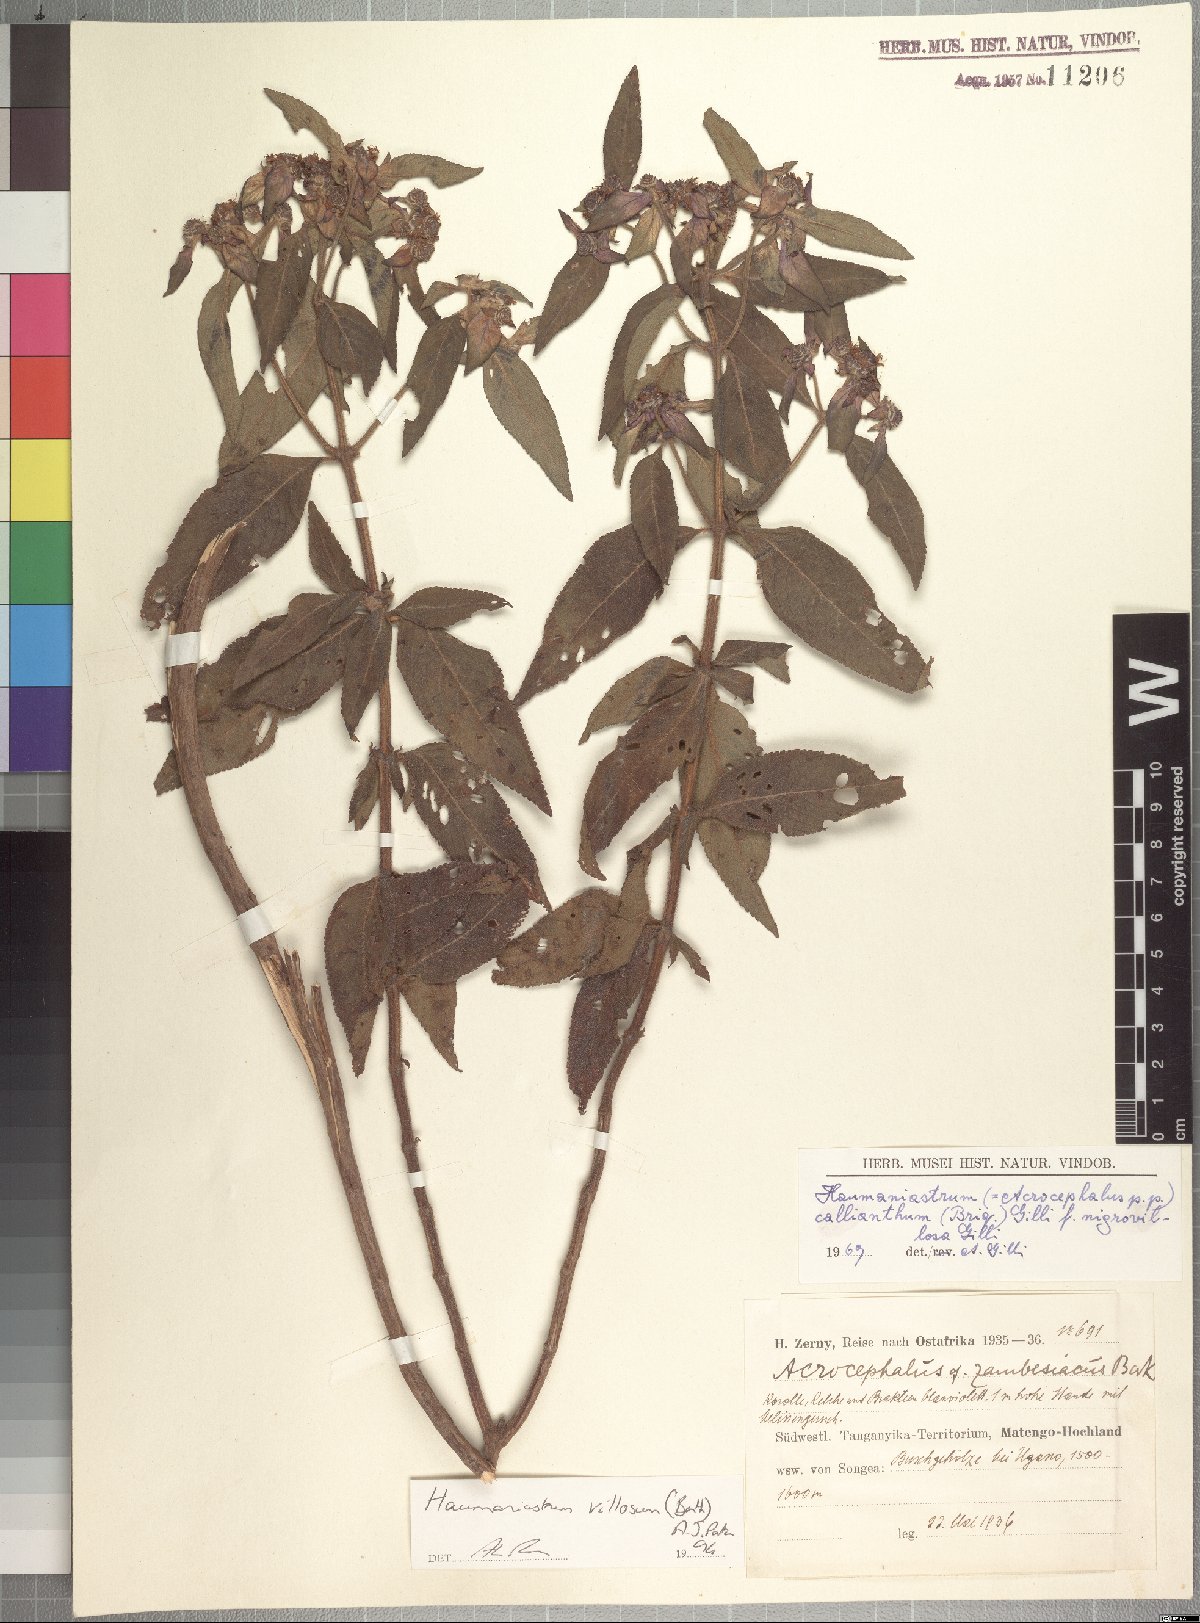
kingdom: Plantae
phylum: Tracheophyta
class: Magnoliopsida
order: Lamiales
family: Lamiaceae
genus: Haumaniastrum
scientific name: Haumaniastrum villosum
